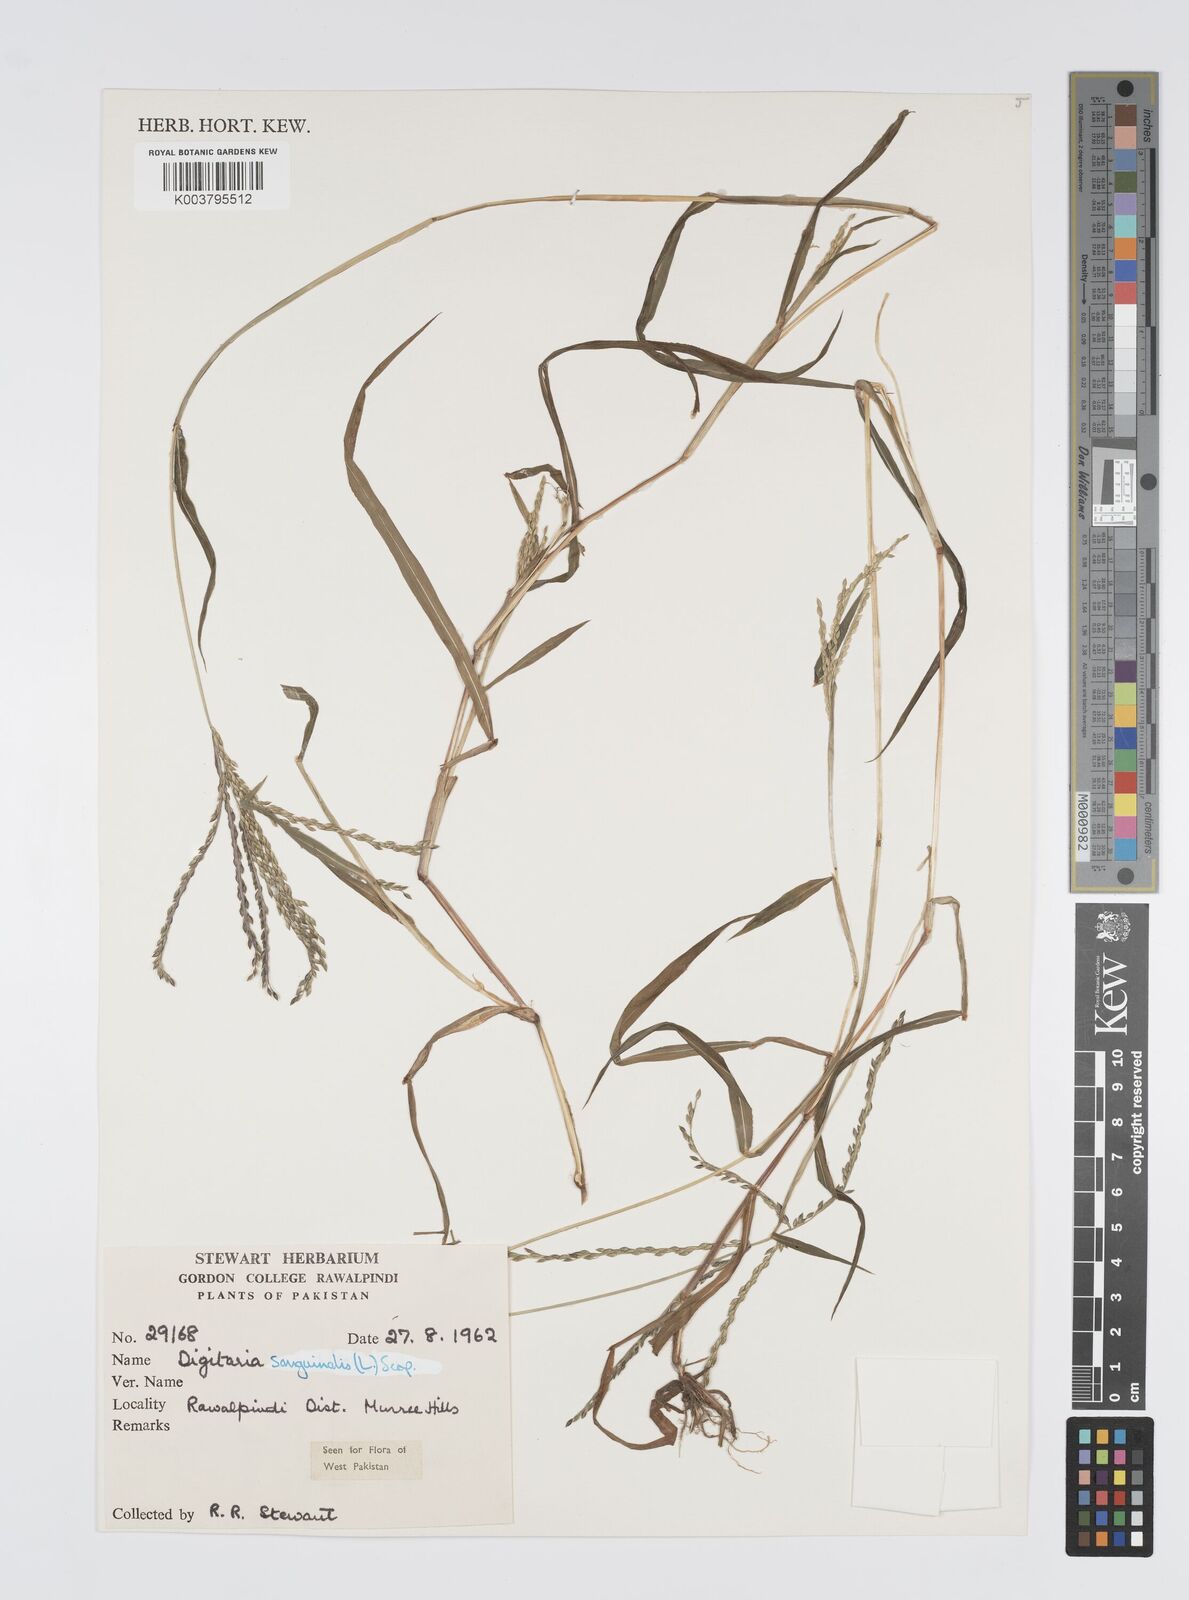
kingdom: Plantae
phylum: Tracheophyta
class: Liliopsida
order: Poales
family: Poaceae
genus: Digitaria
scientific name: Digitaria sanguinalis
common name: Hairy crabgrass
